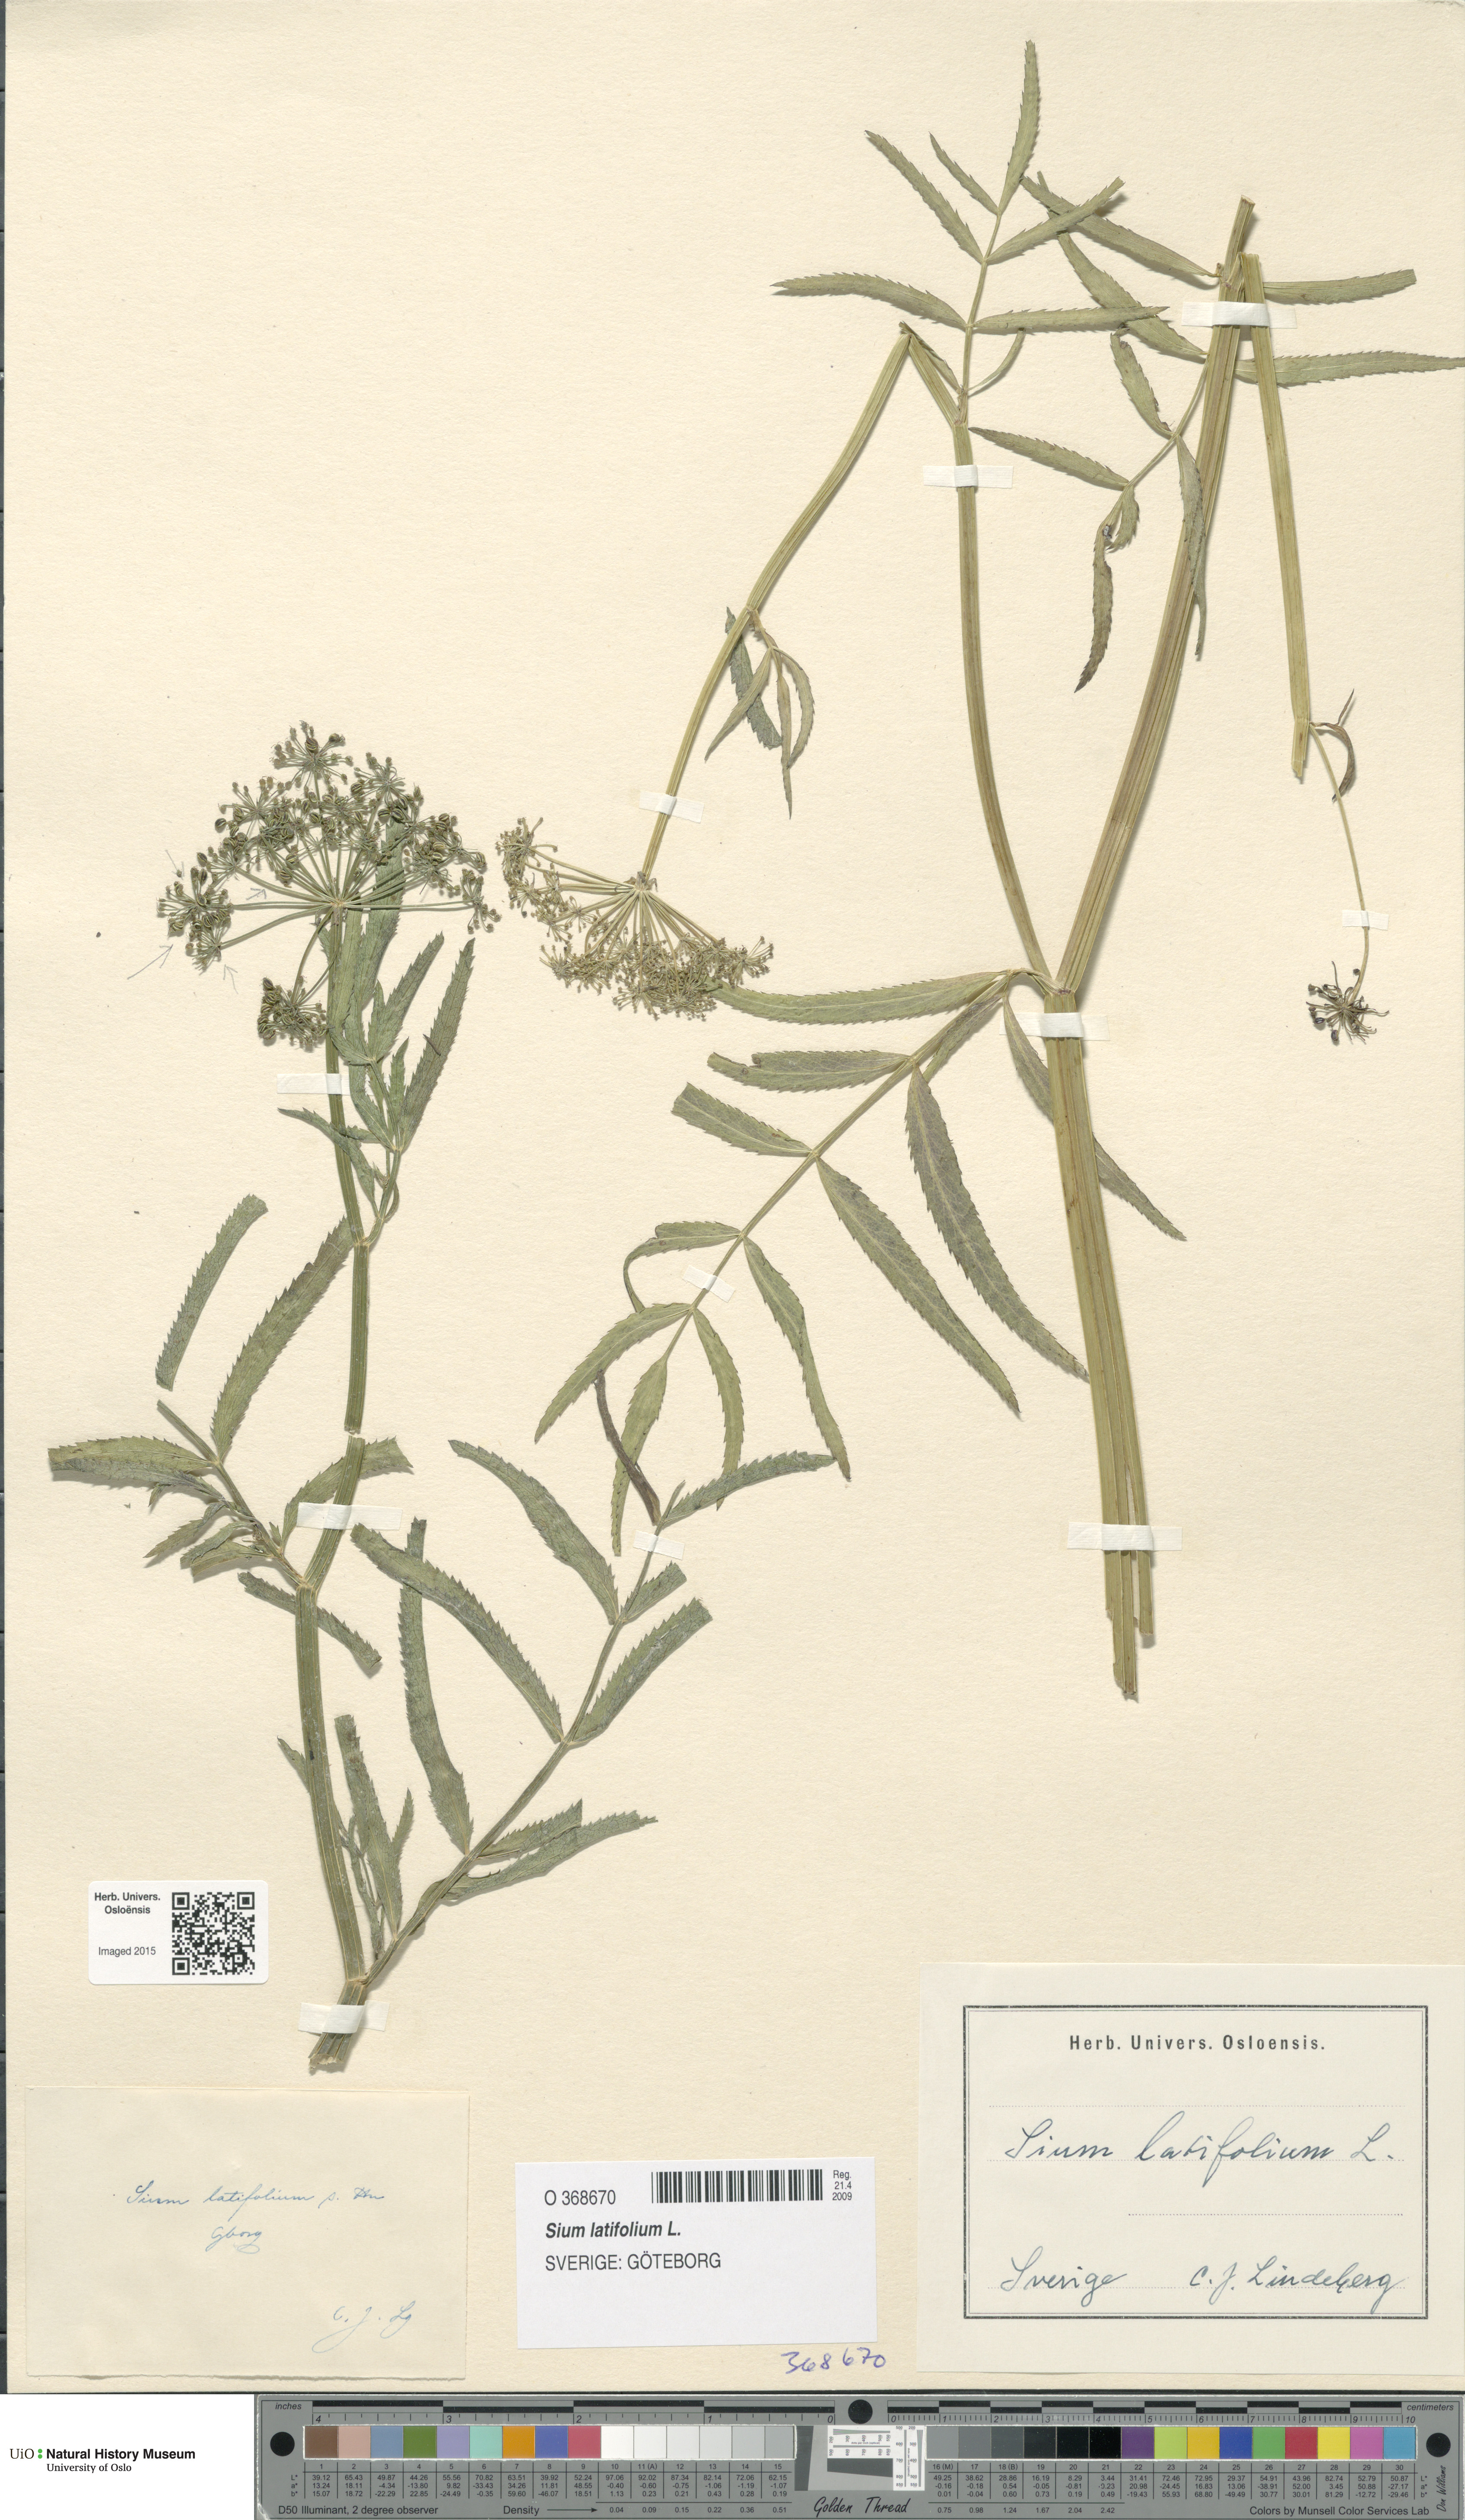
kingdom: Plantae
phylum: Tracheophyta
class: Magnoliopsida
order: Apiales
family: Apiaceae
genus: Sium
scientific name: Sium latifolium
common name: Greater water-parsnip
